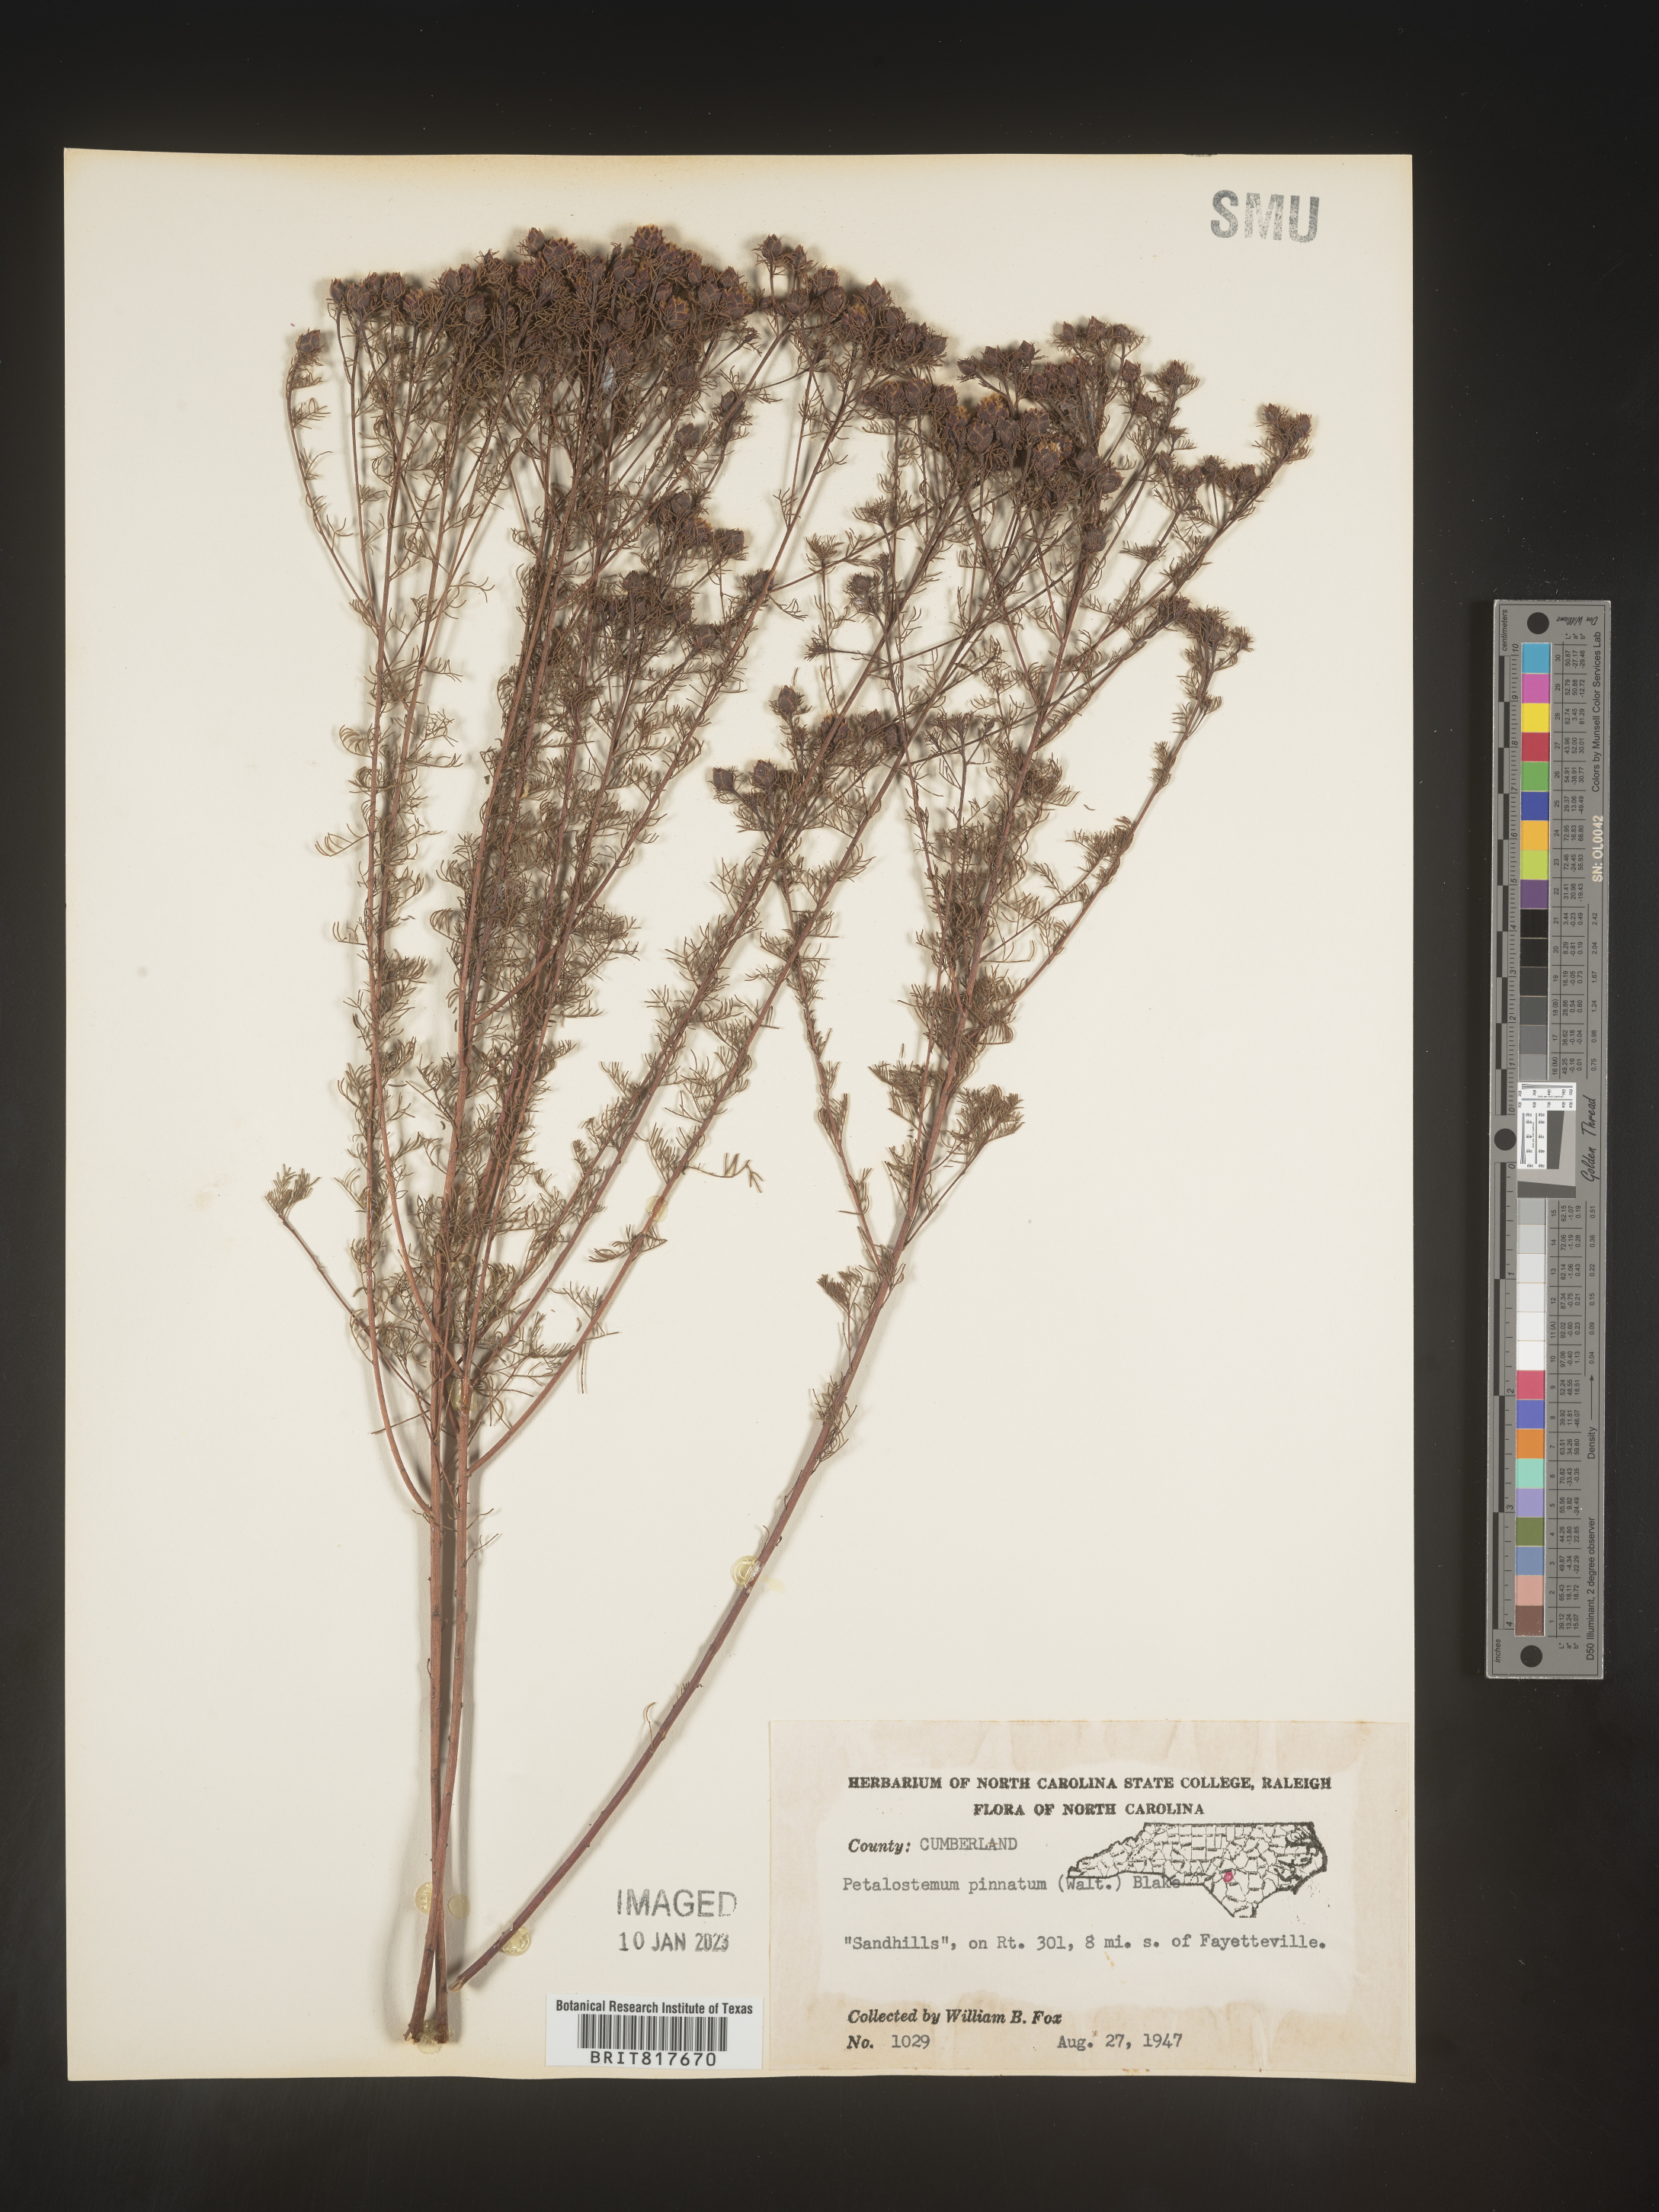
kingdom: Plantae
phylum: Tracheophyta
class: Magnoliopsida
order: Fabales
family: Fabaceae
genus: Dalea
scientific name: Dalea pinnata
